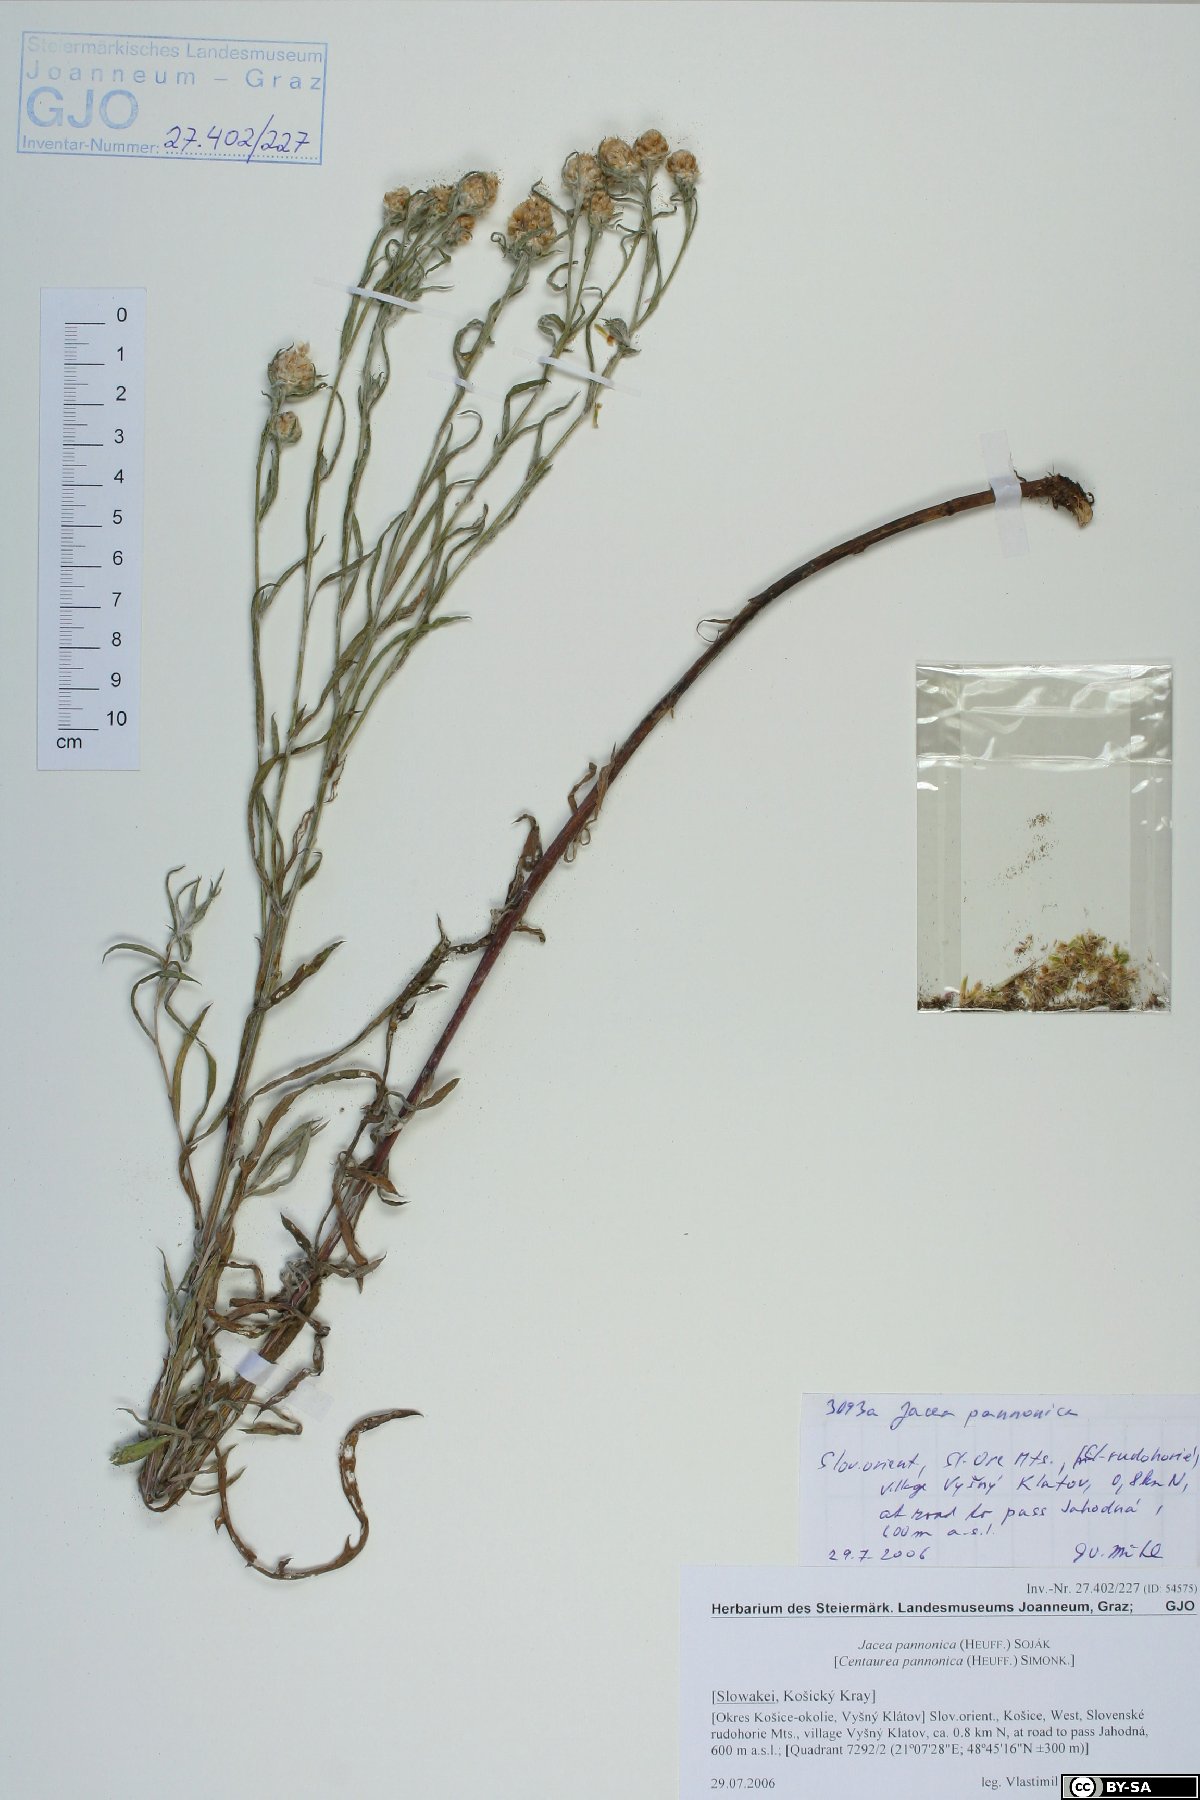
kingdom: Plantae
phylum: Tracheophyta
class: Magnoliopsida
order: Asterales
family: Asteraceae
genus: Centaurea
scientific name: Centaurea pannonica
